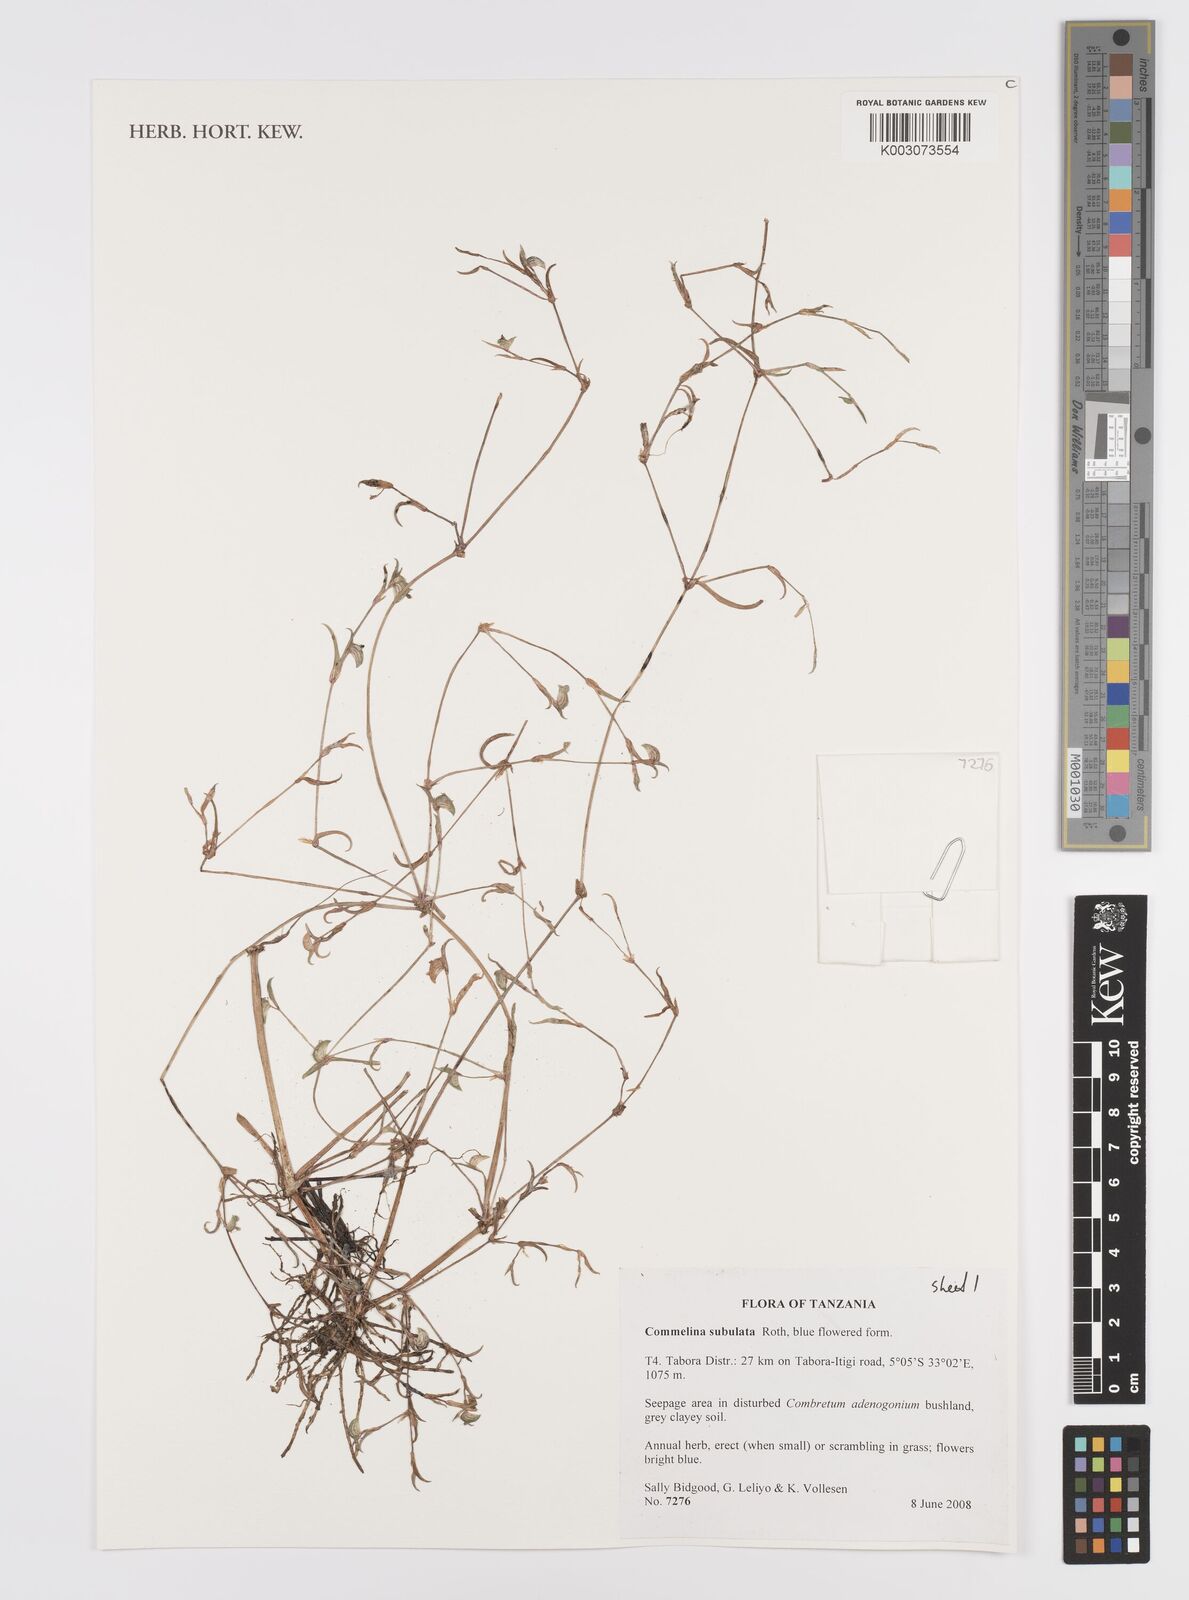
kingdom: Plantae
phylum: Tracheophyta
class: Liliopsida
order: Commelinales
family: Commelinaceae
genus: Commelina
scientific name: Commelina subulata
